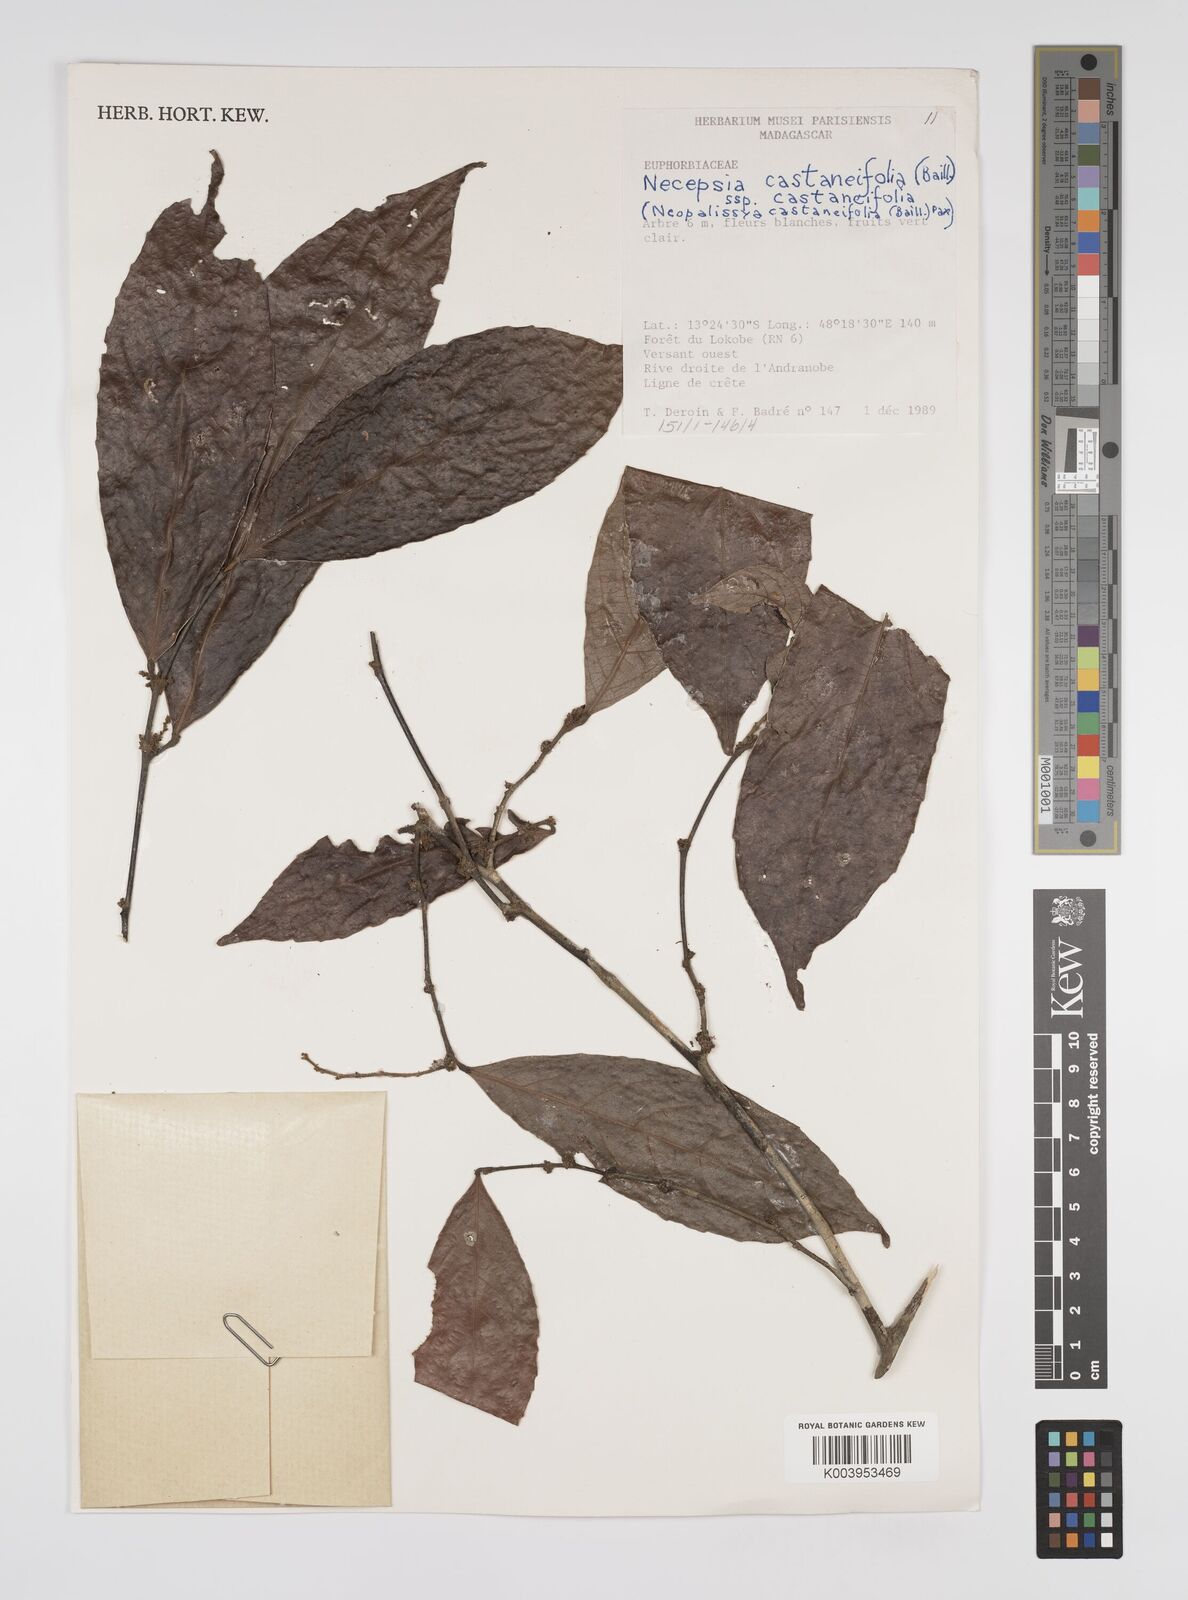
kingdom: Plantae
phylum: Tracheophyta
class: Magnoliopsida
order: Malpighiales
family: Euphorbiaceae
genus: Necepsia
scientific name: Necepsia castaneifolia
